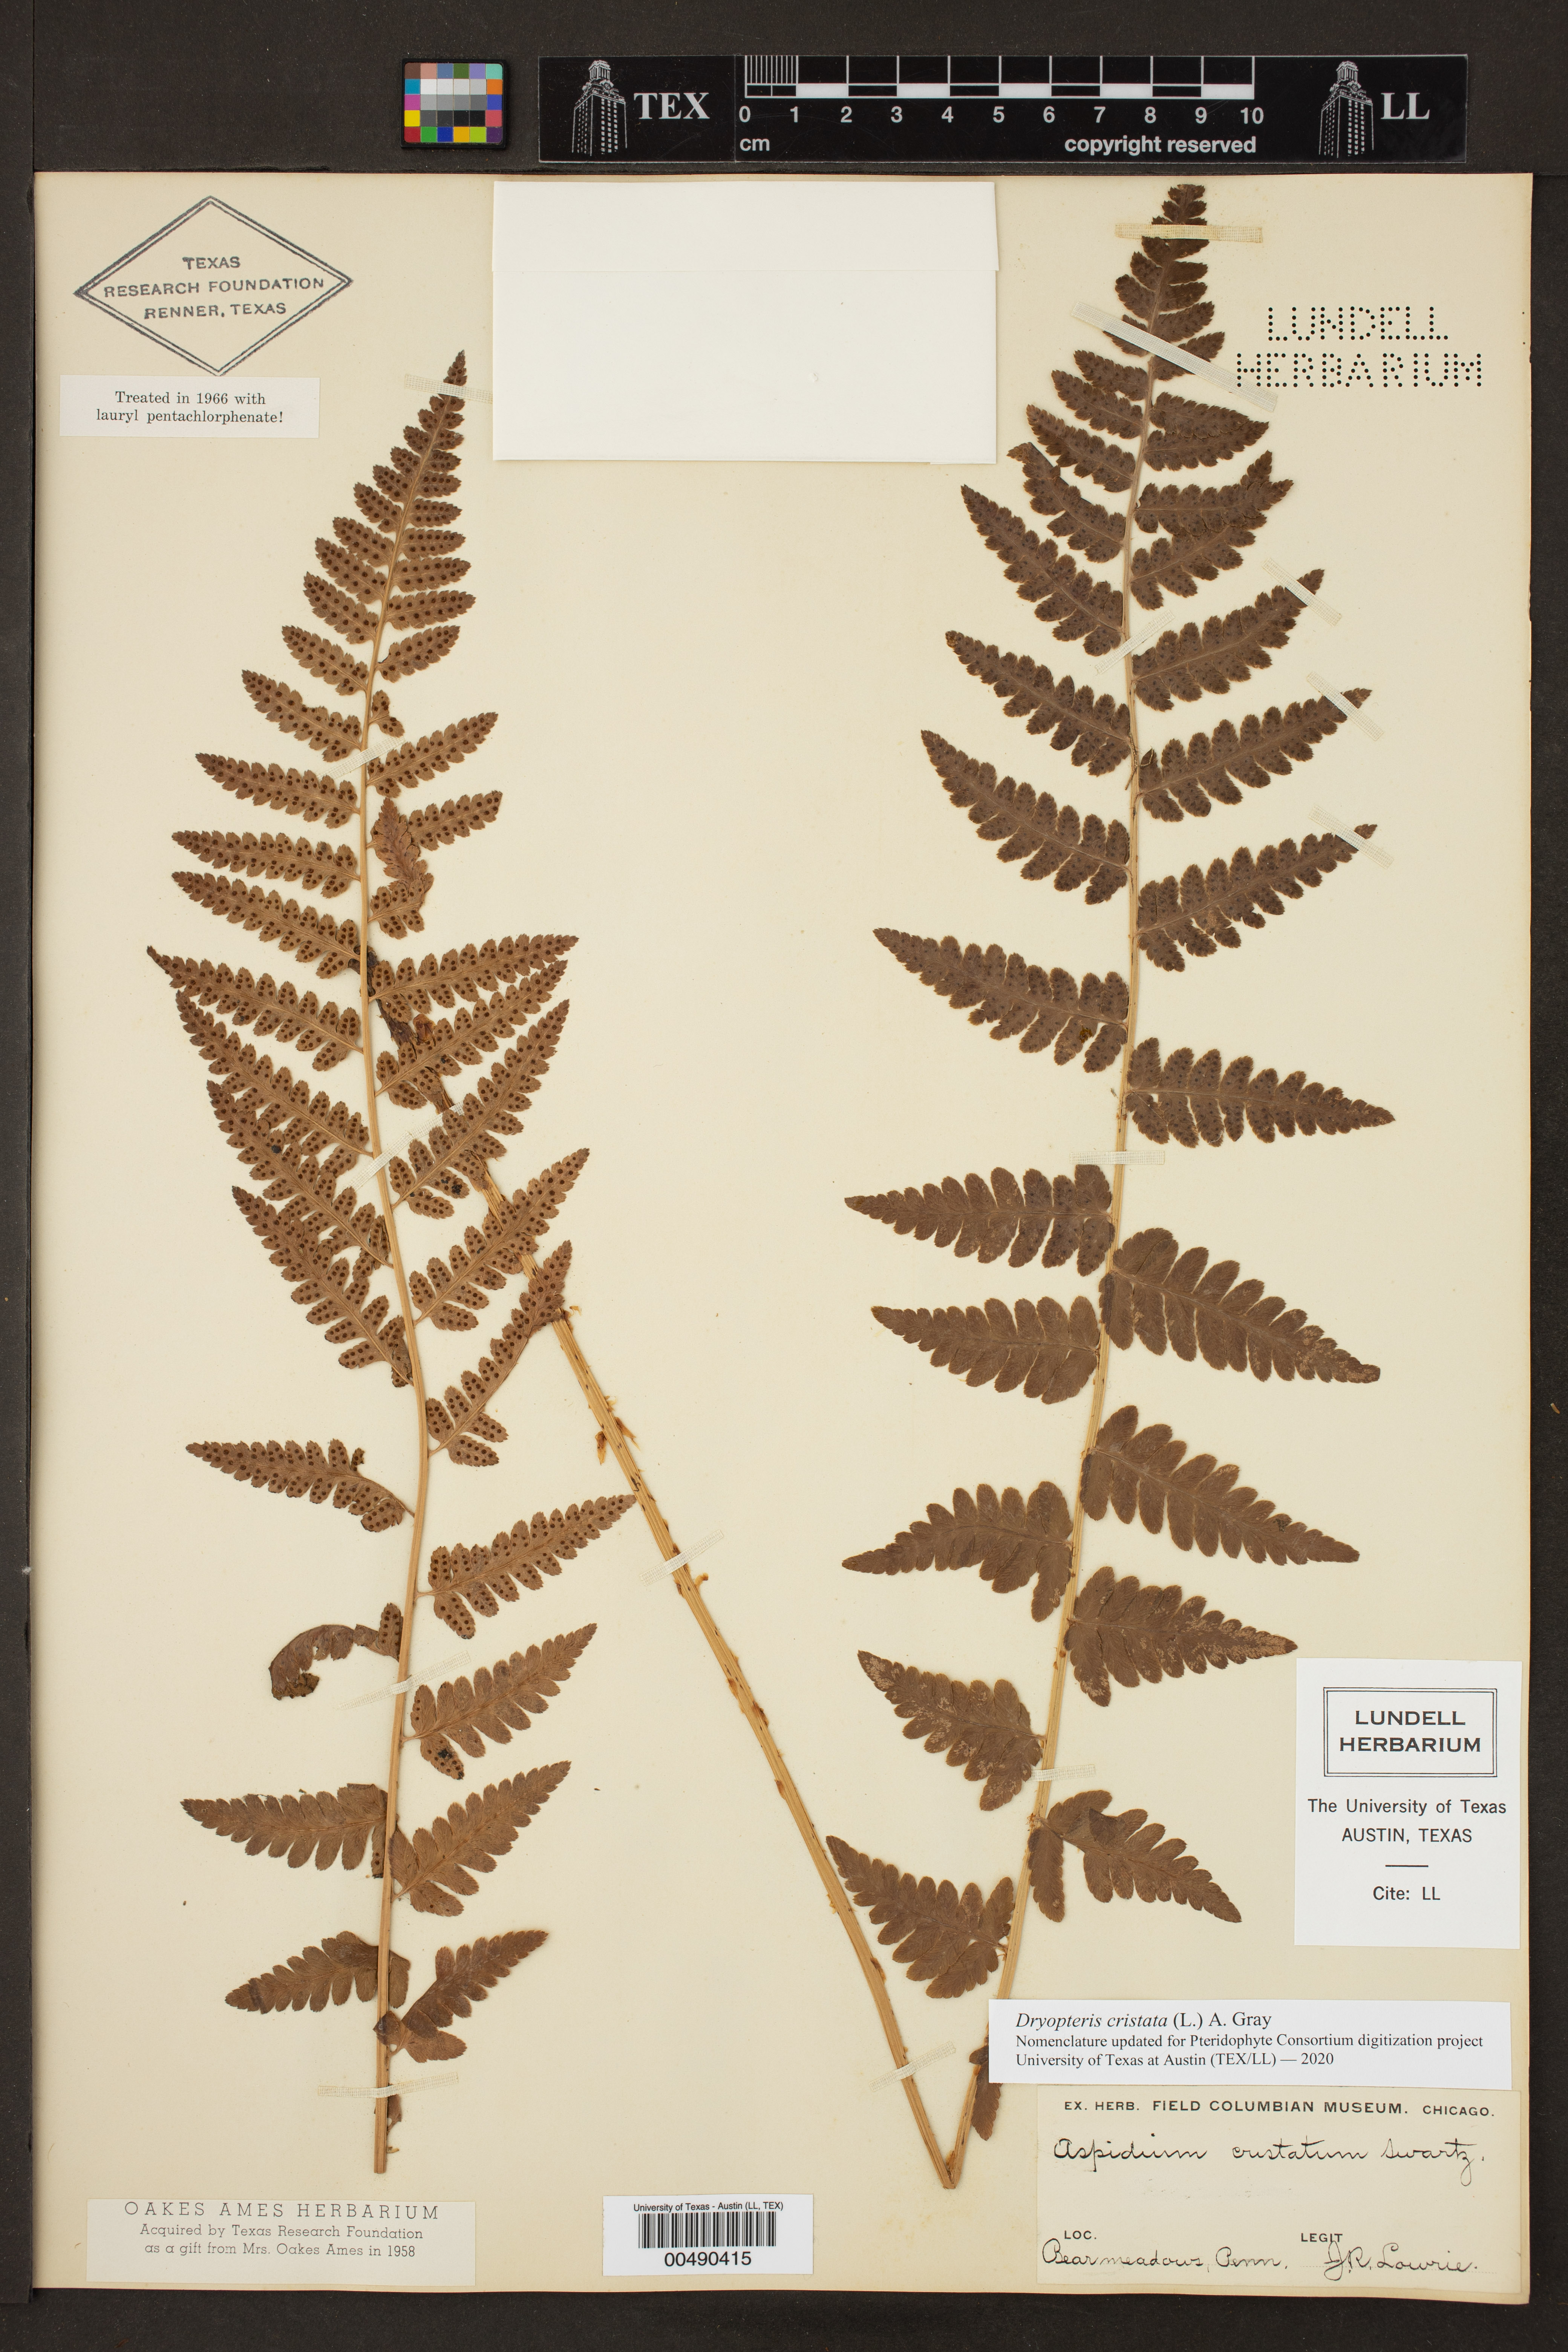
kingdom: Plantae
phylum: Tracheophyta
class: Polypodiopsida
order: Polypodiales
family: Dryopteridaceae
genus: Dryopteris
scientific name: Dryopteris cristata
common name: Crested wood fern
